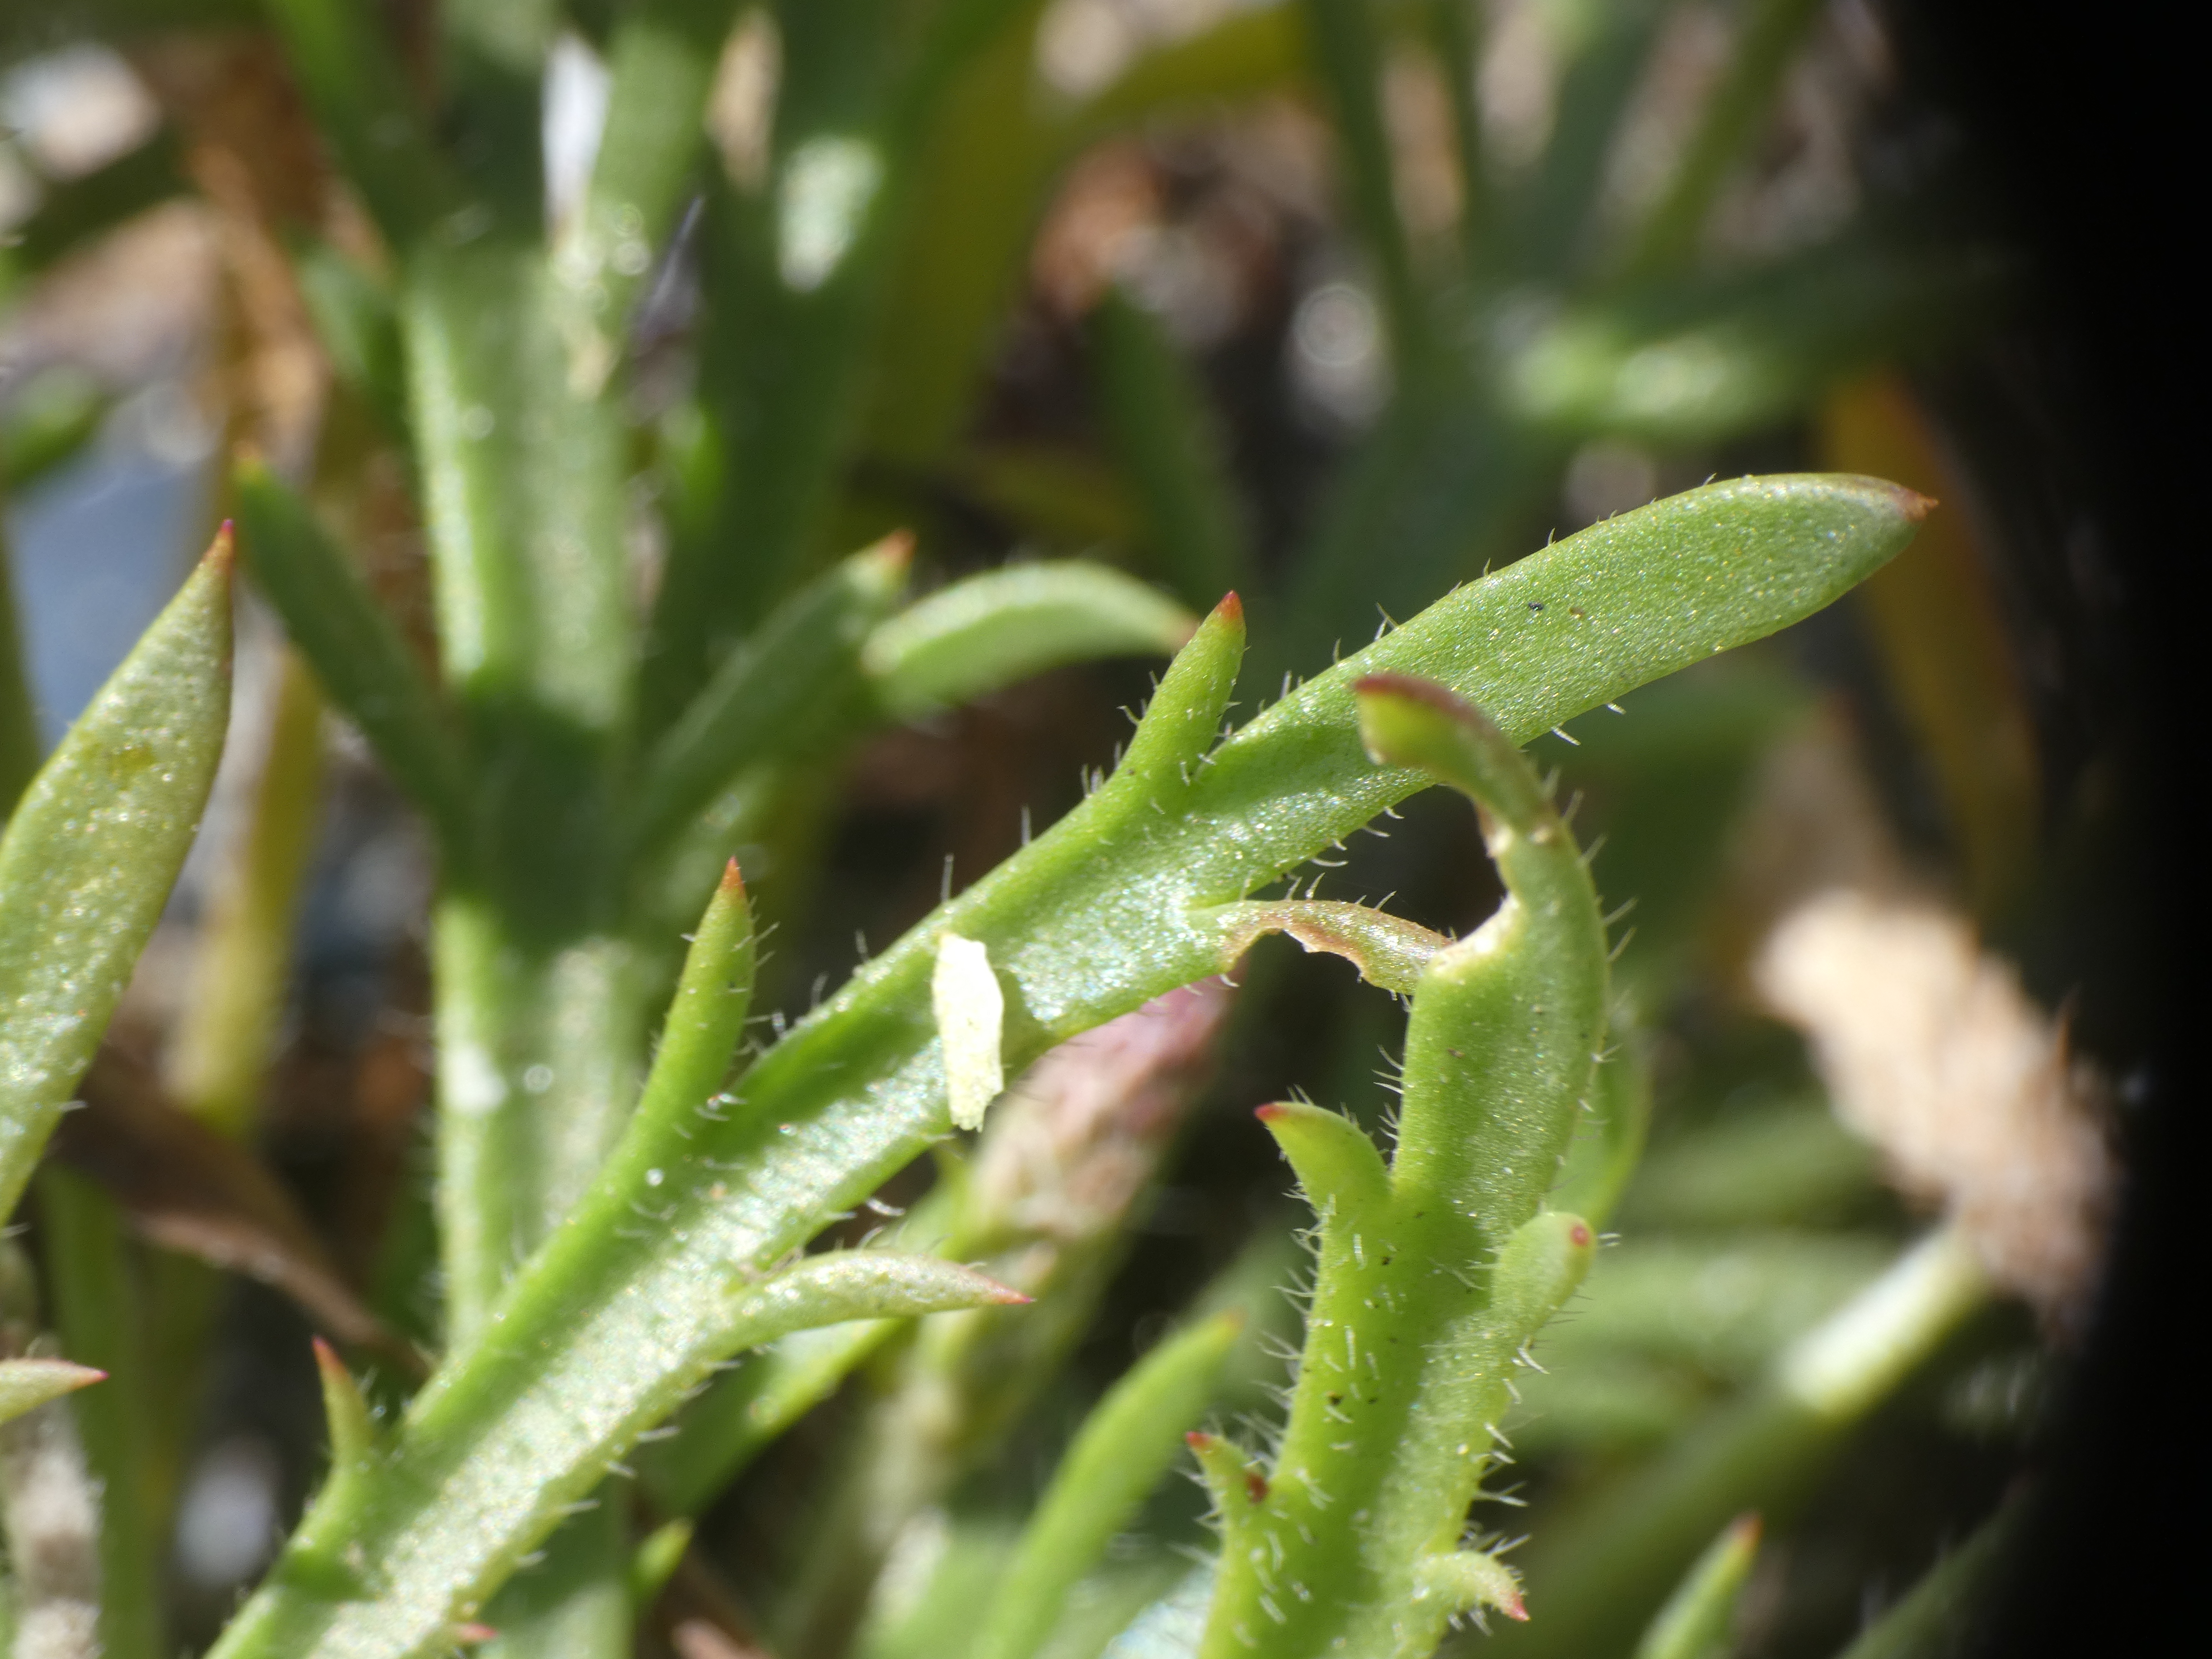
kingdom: Plantae
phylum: Tracheophyta
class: Magnoliopsida
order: Lamiales
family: Plantaginaceae
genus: Plantago
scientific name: Plantago coronopus
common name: Fliget vejbred
